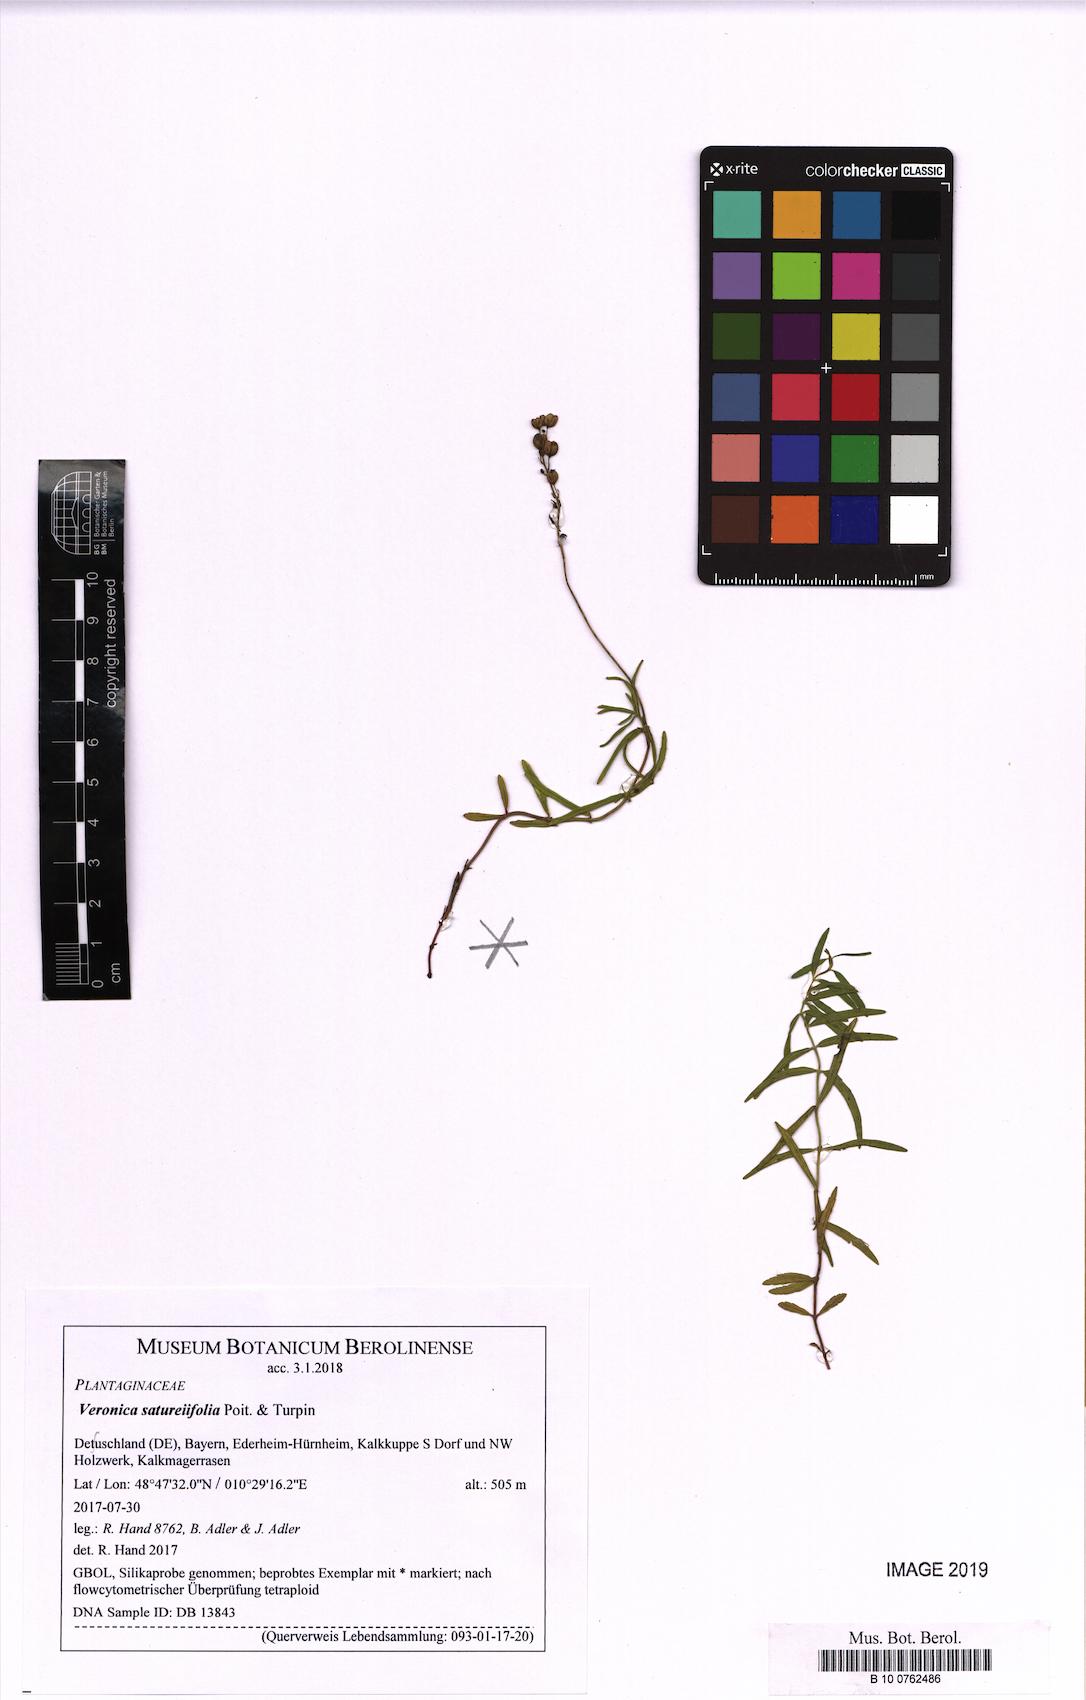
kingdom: Plantae
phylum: Tracheophyta
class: Magnoliopsida
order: Lamiales
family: Plantaginaceae
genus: Veronica
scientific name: Veronica satureiifolia
